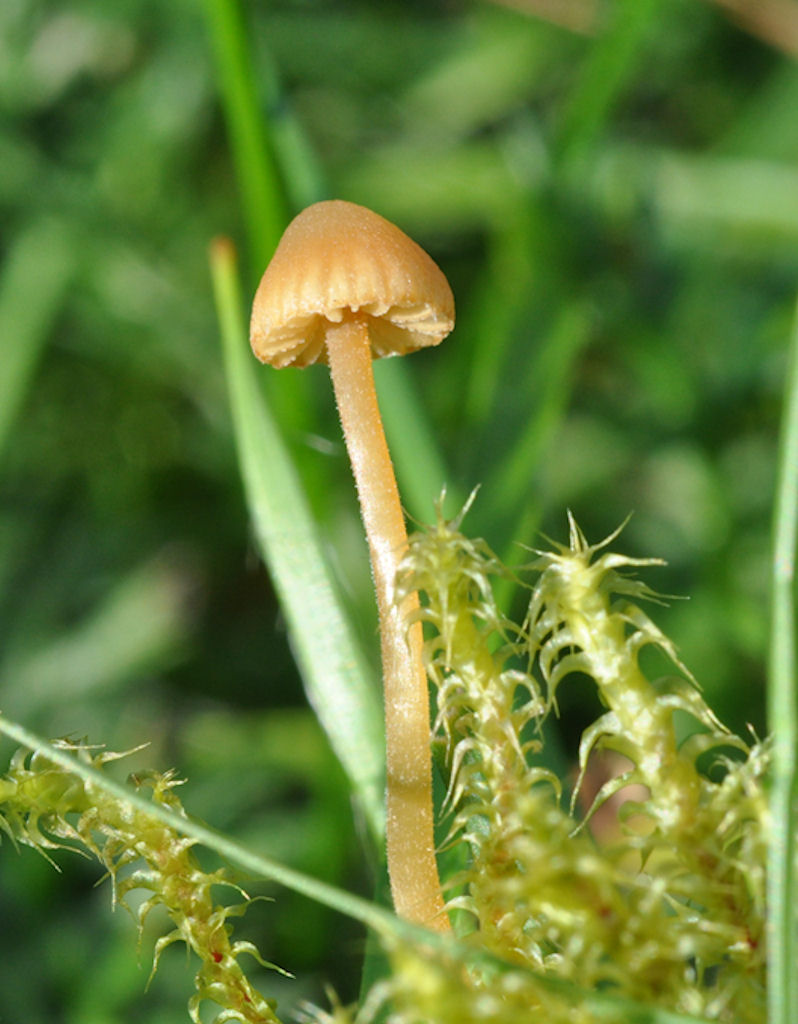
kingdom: Fungi
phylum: Basidiomycota
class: Agaricomycetes
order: Agaricales
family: Hymenogastraceae
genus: Galerina
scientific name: Galerina vittiformis
